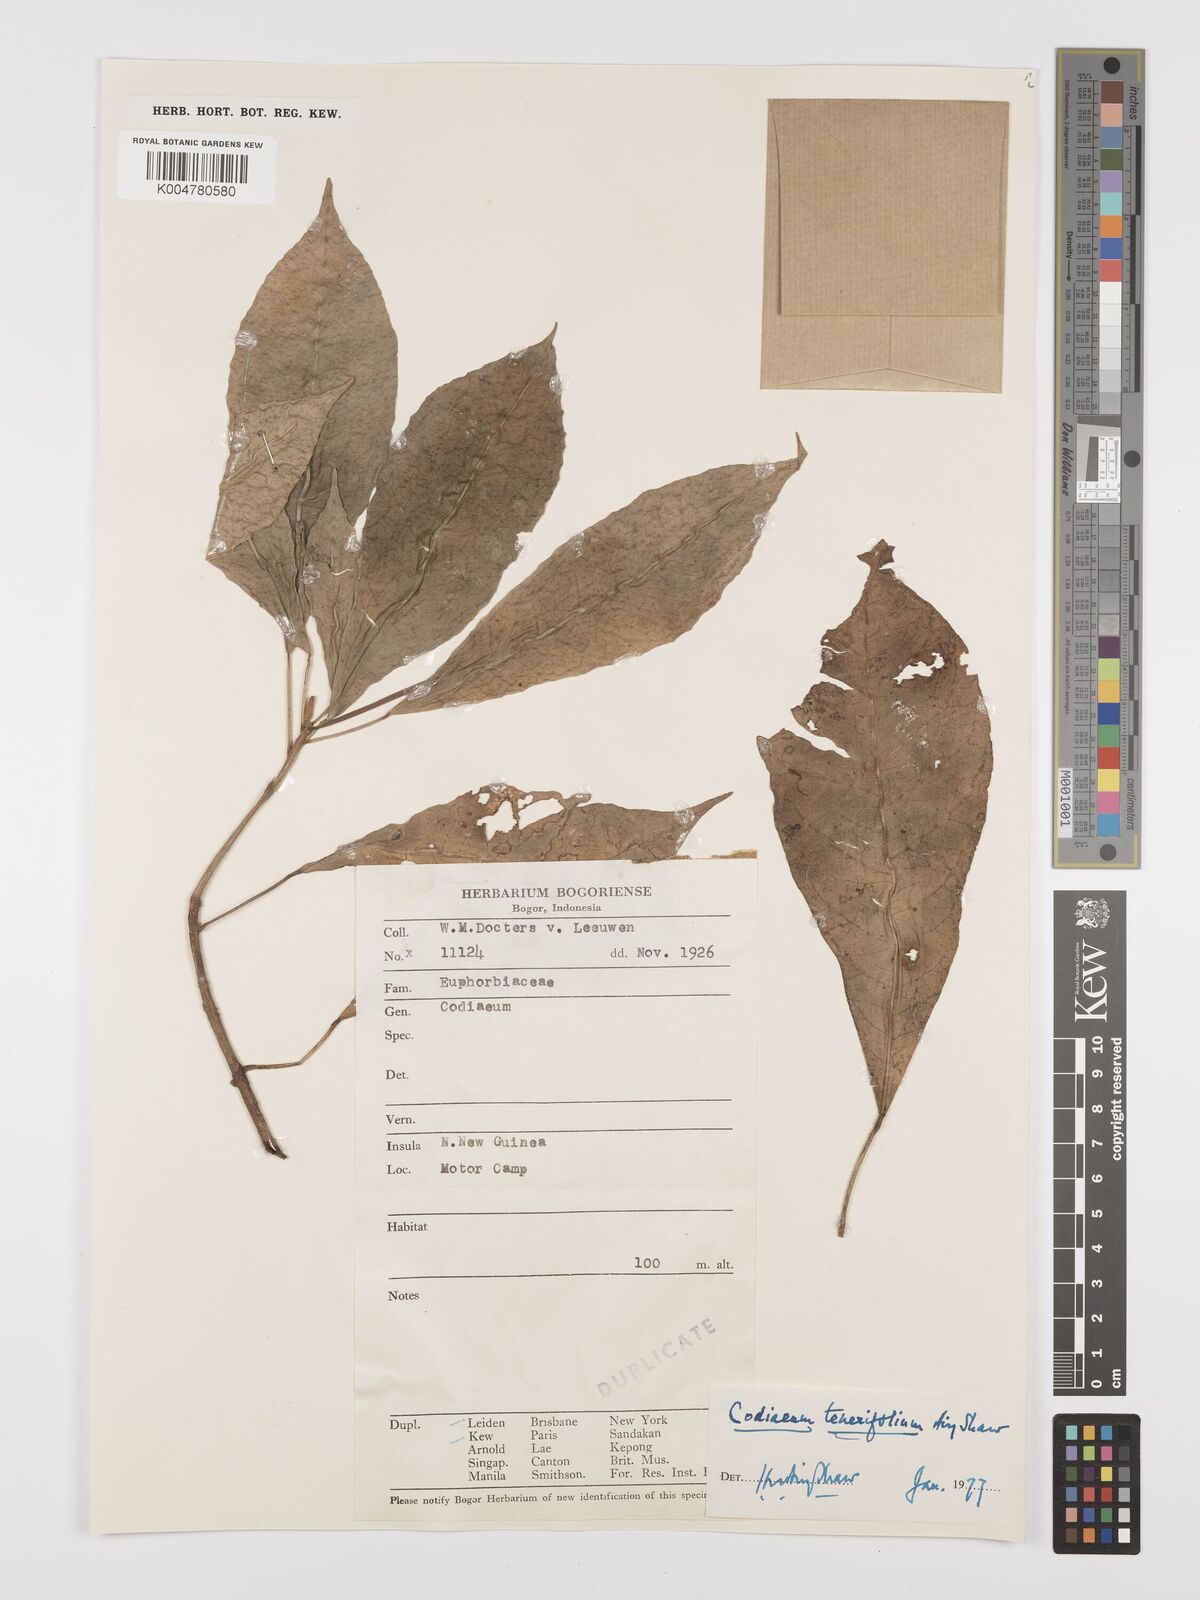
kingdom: Plantae
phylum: Tracheophyta
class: Magnoliopsida
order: Malpighiales
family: Euphorbiaceae
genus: Codiaeum
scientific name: Codiaeum tenerifolium
